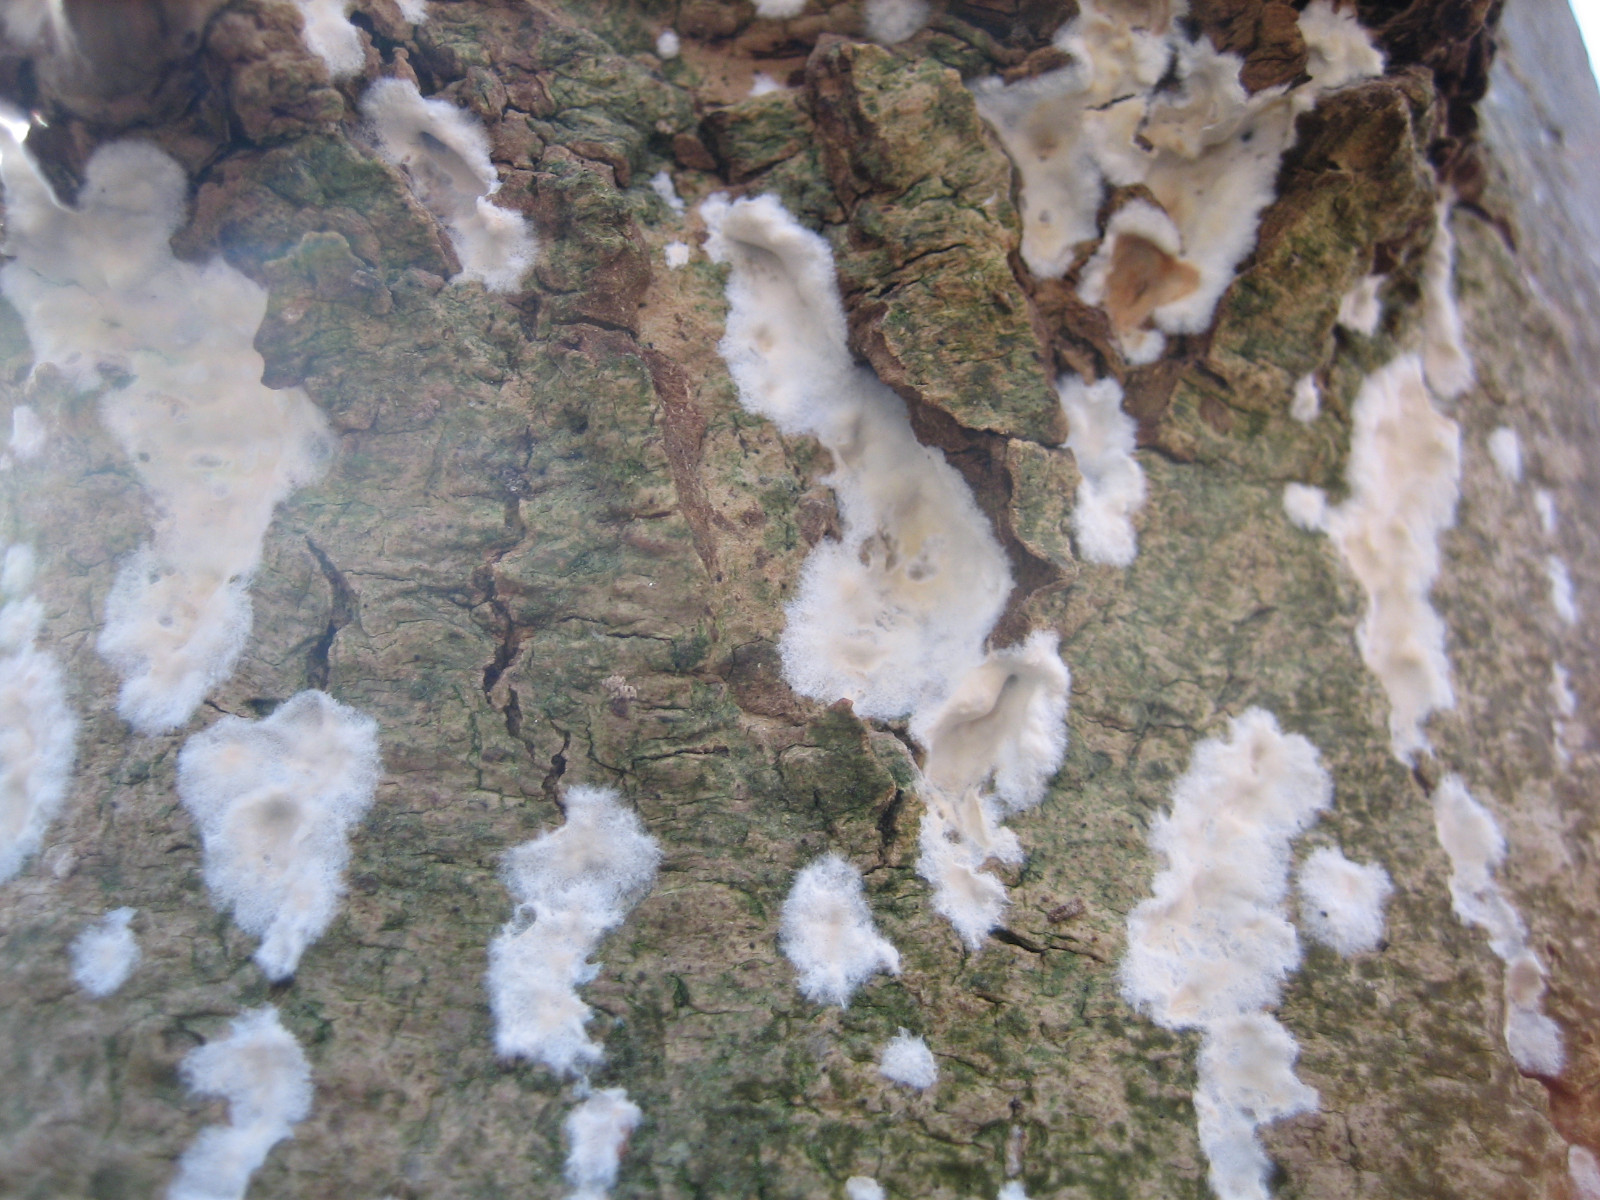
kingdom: Fungi
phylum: Basidiomycota
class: Agaricomycetes
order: Agaricales
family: Physalacriaceae
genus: Cylindrobasidium
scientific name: Cylindrobasidium evolvens
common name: sprækkehinde
